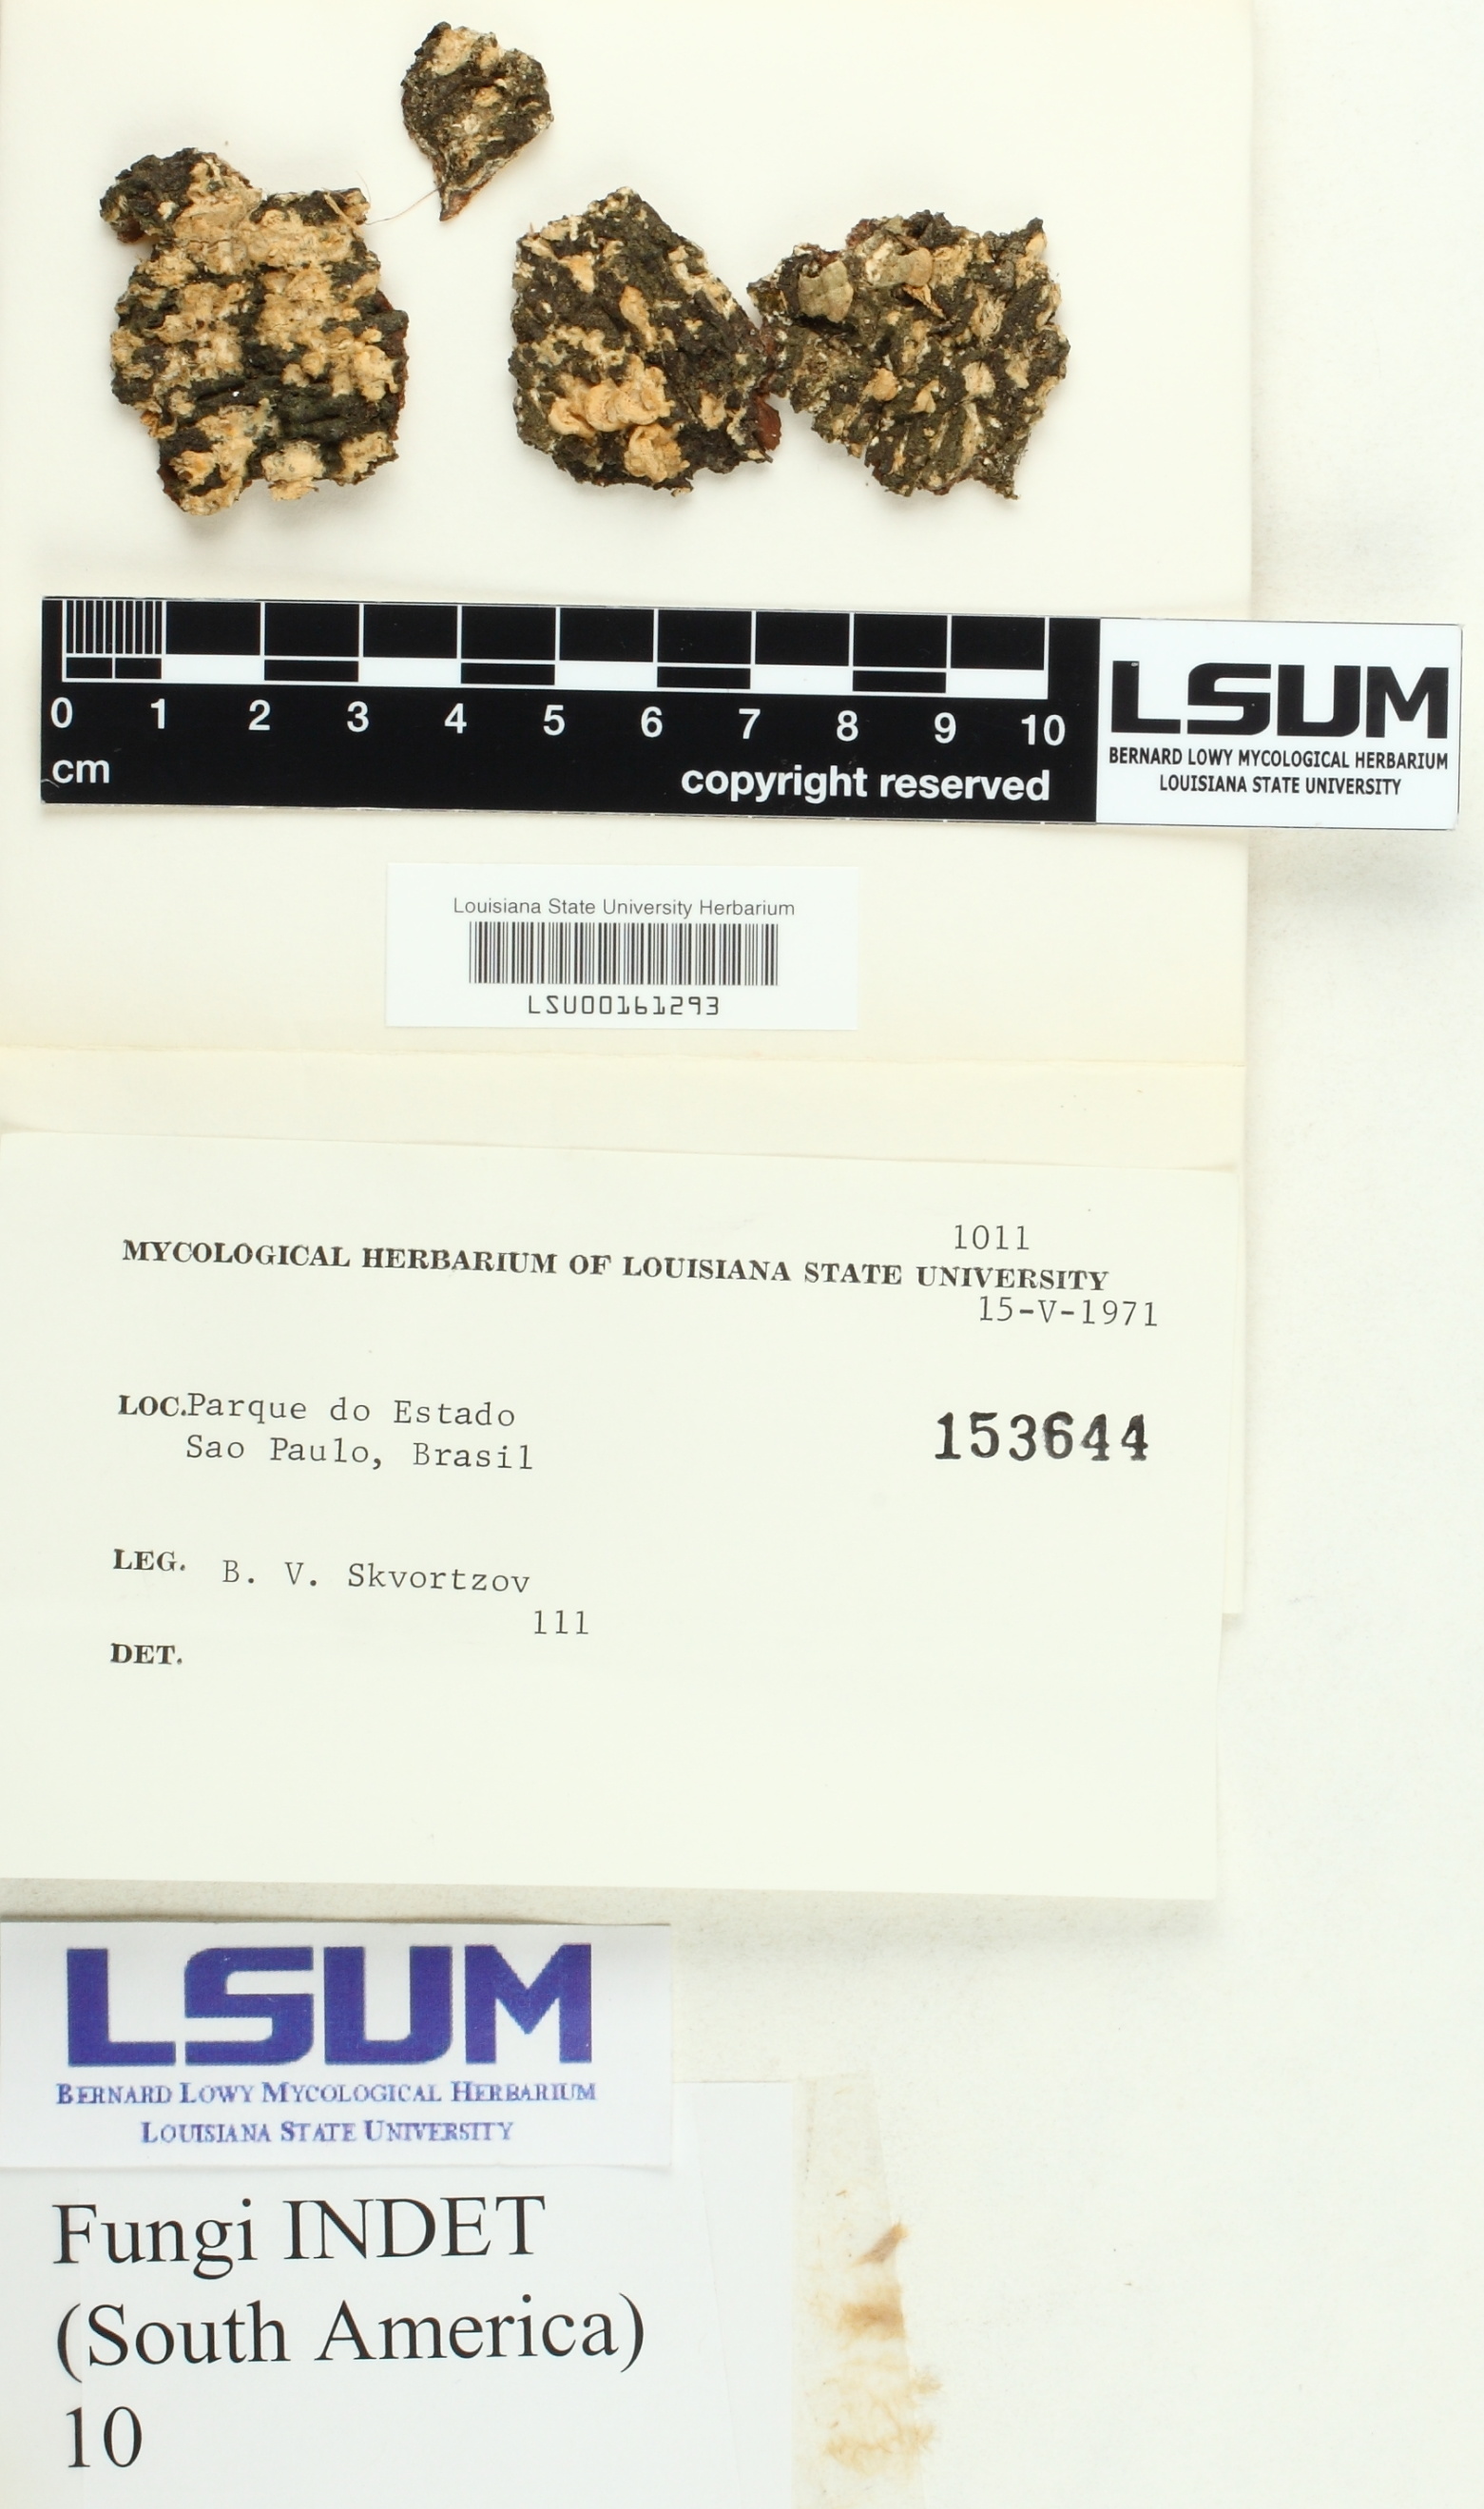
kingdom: Fungi
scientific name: Fungi
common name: Fungi
